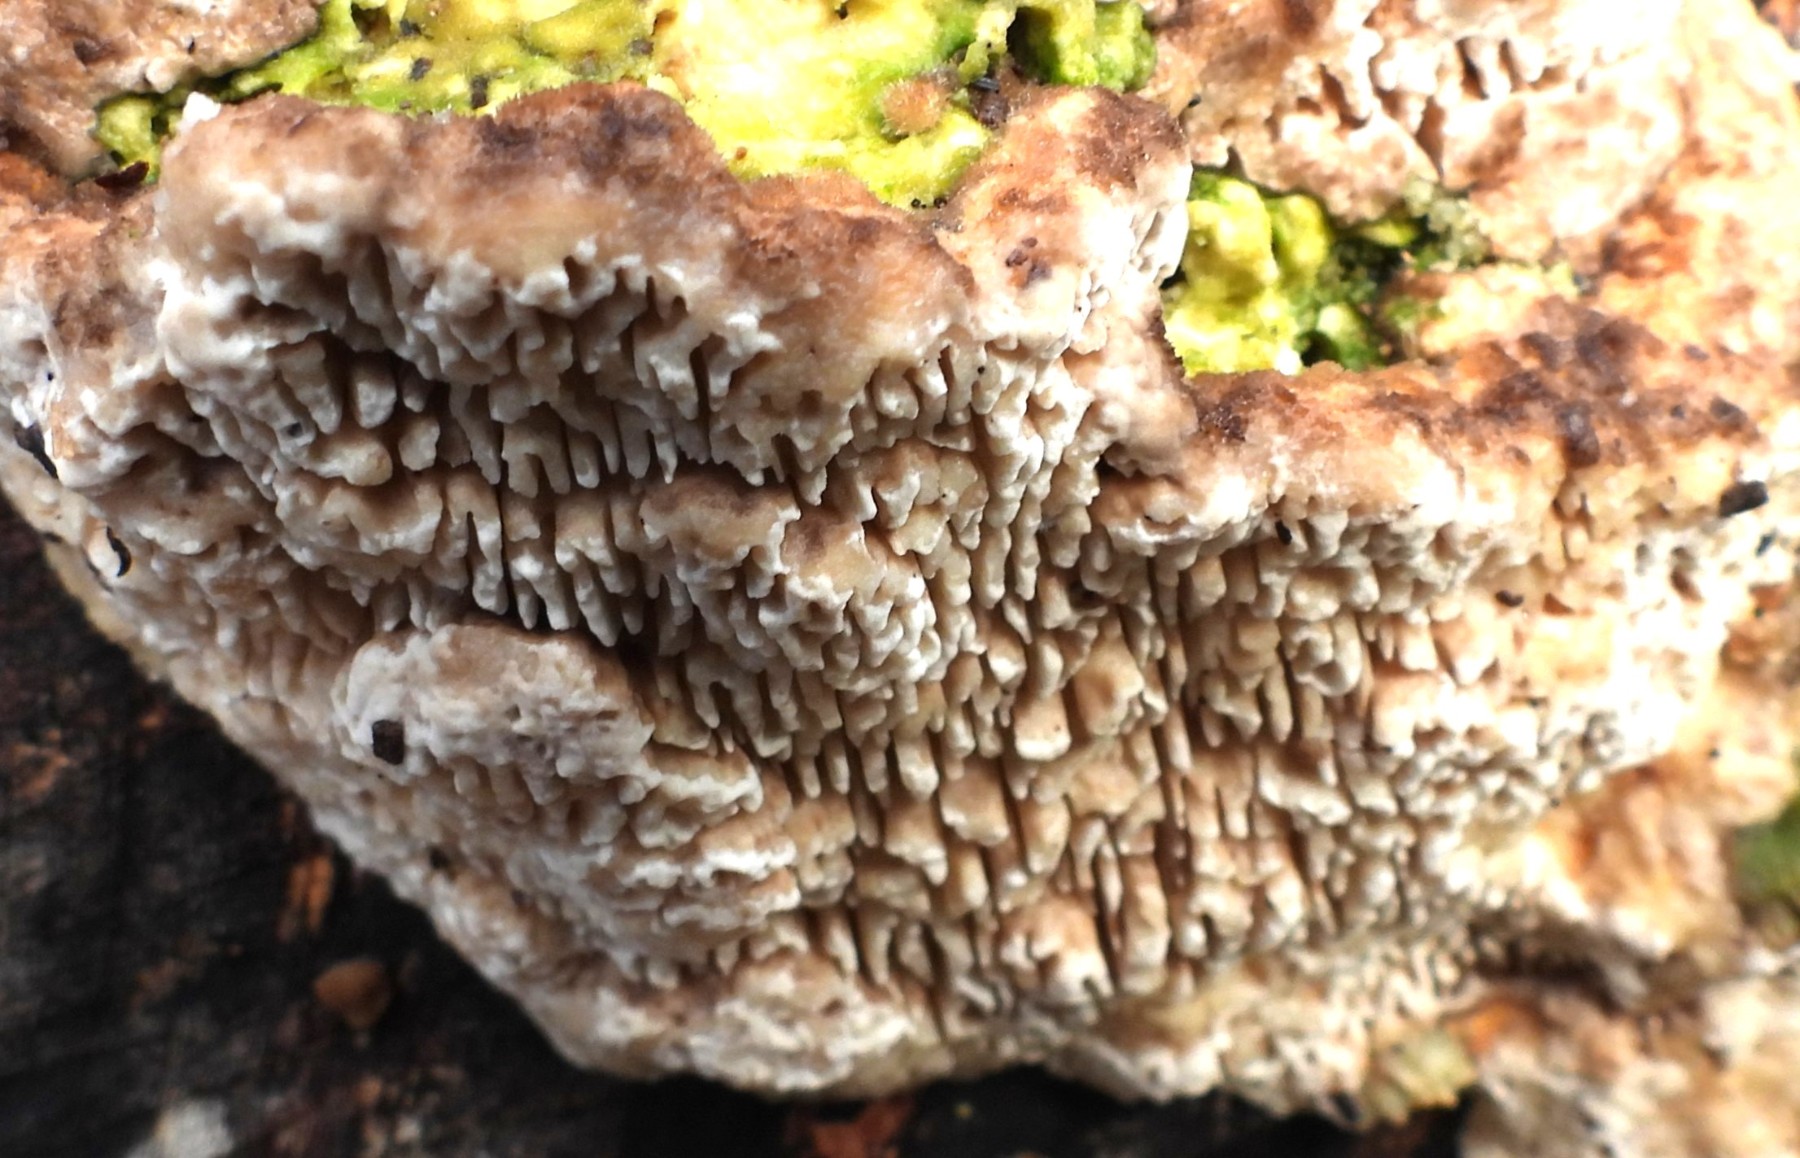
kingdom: Fungi
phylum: Basidiomycota
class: Agaricomycetes
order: Polyporales
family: Polyporaceae
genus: Lenzites
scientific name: Lenzites betulinus
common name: birke-læderporesvamp
